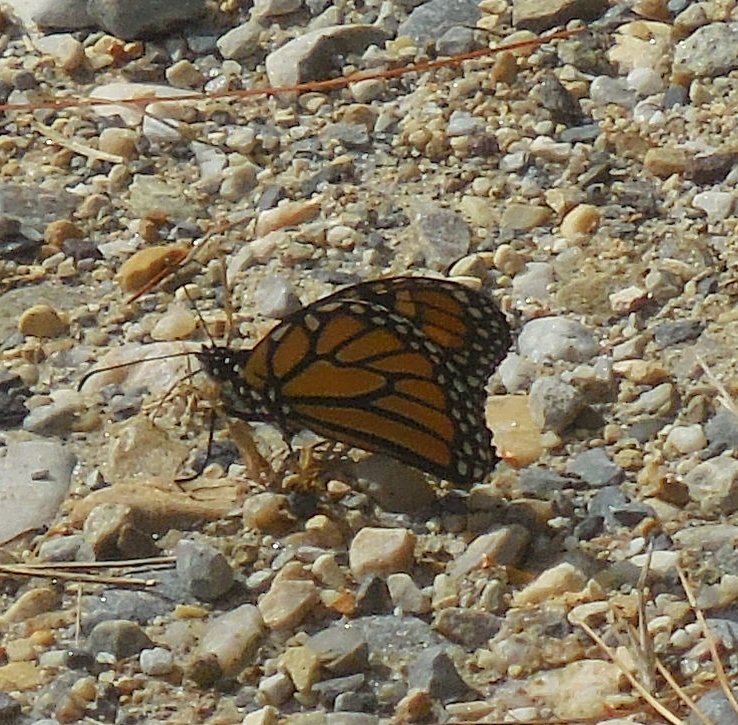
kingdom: Animalia
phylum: Arthropoda
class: Insecta
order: Lepidoptera
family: Nymphalidae
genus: Danaus
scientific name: Danaus plexippus
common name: Monarch
